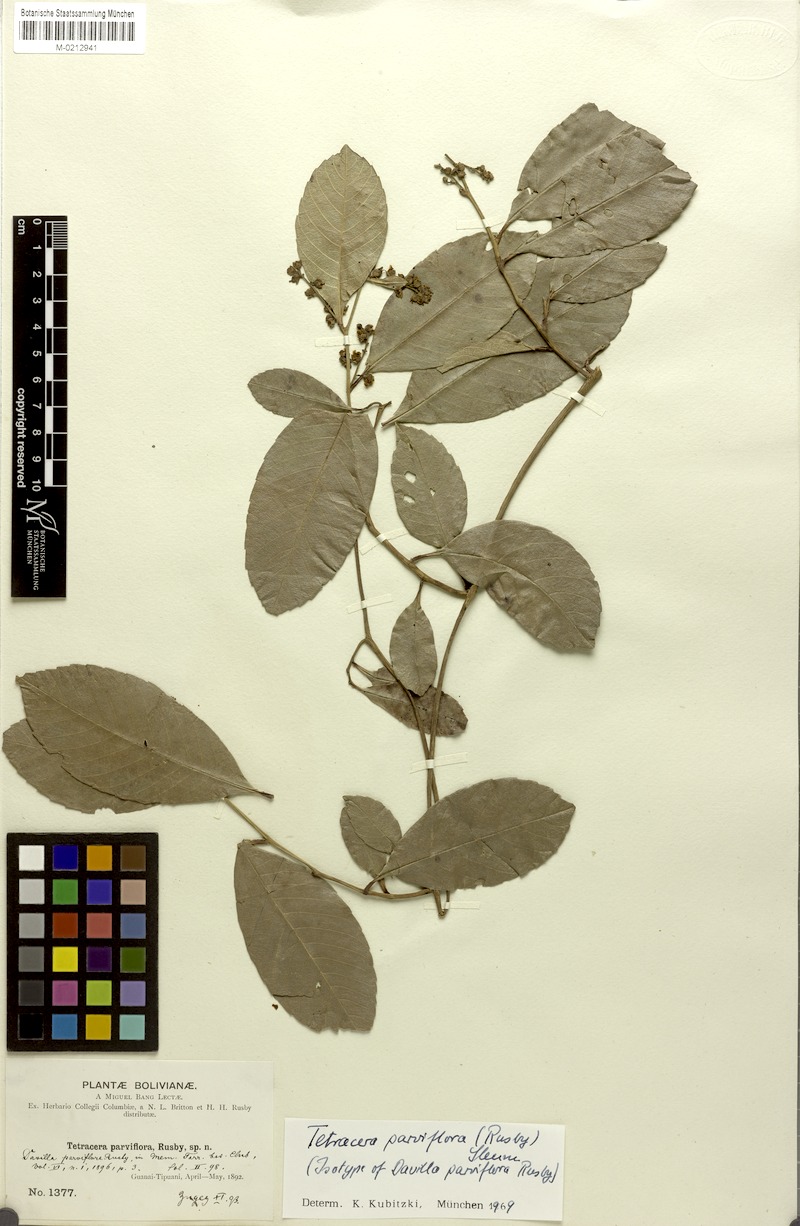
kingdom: Plantae
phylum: Tracheophyta
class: Magnoliopsida
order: Dilleniales
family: Dilleniaceae
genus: Tetracera
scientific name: Tetracera parviflora
